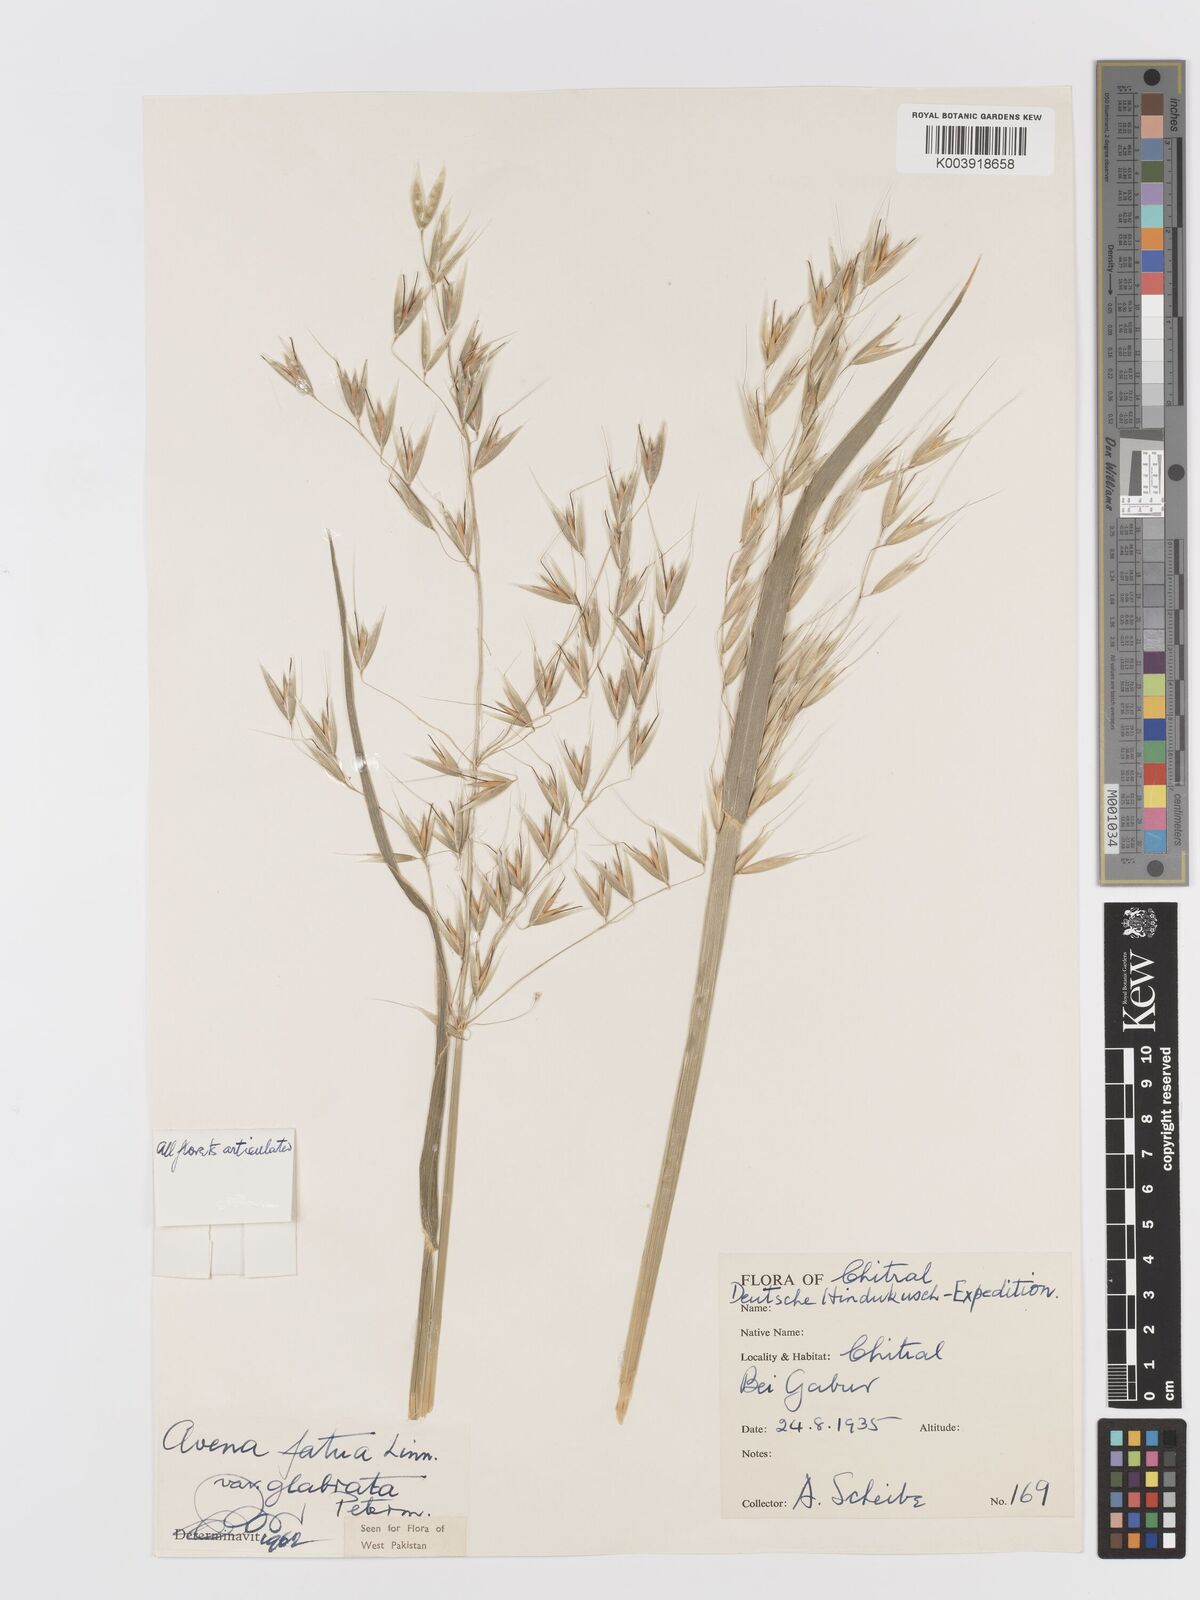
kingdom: Plantae
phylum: Tracheophyta
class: Liliopsida
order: Poales
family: Poaceae
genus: Avena
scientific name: Avena fatua
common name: Wild oat
